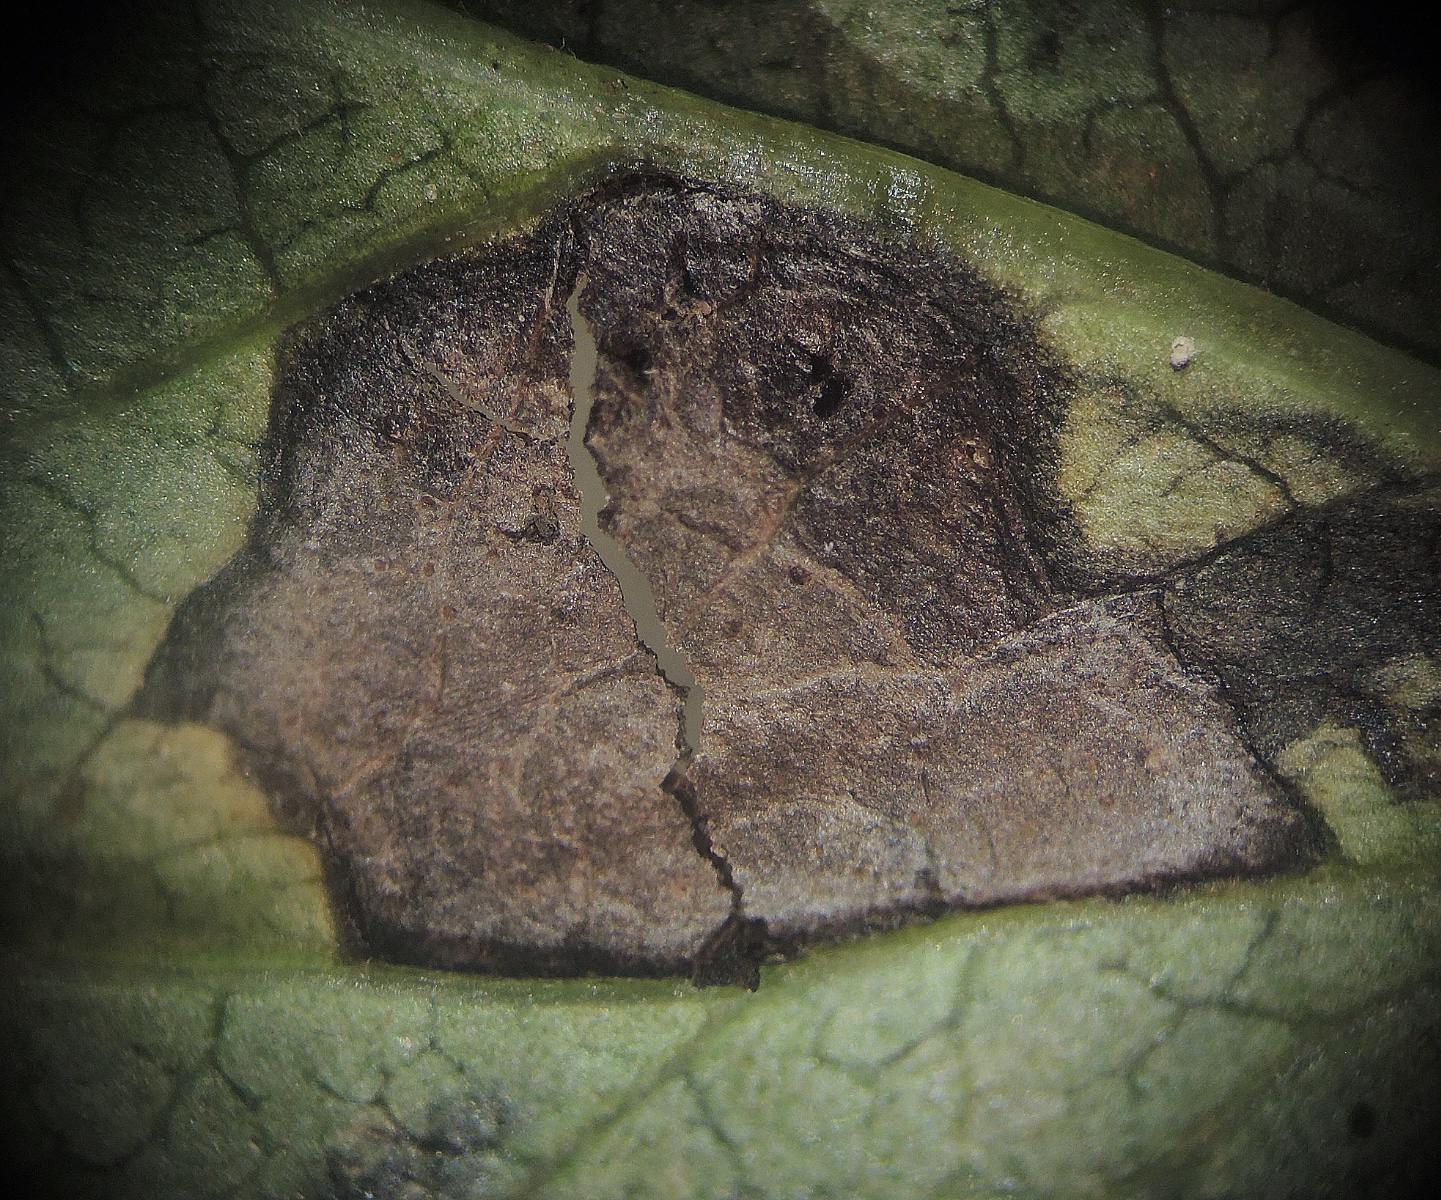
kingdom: Fungi
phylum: Ascomycota
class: Dothideomycetes
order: Pleosporales
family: Didymellaceae
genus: Ascochyta
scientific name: Ascochyta vitalbicola
